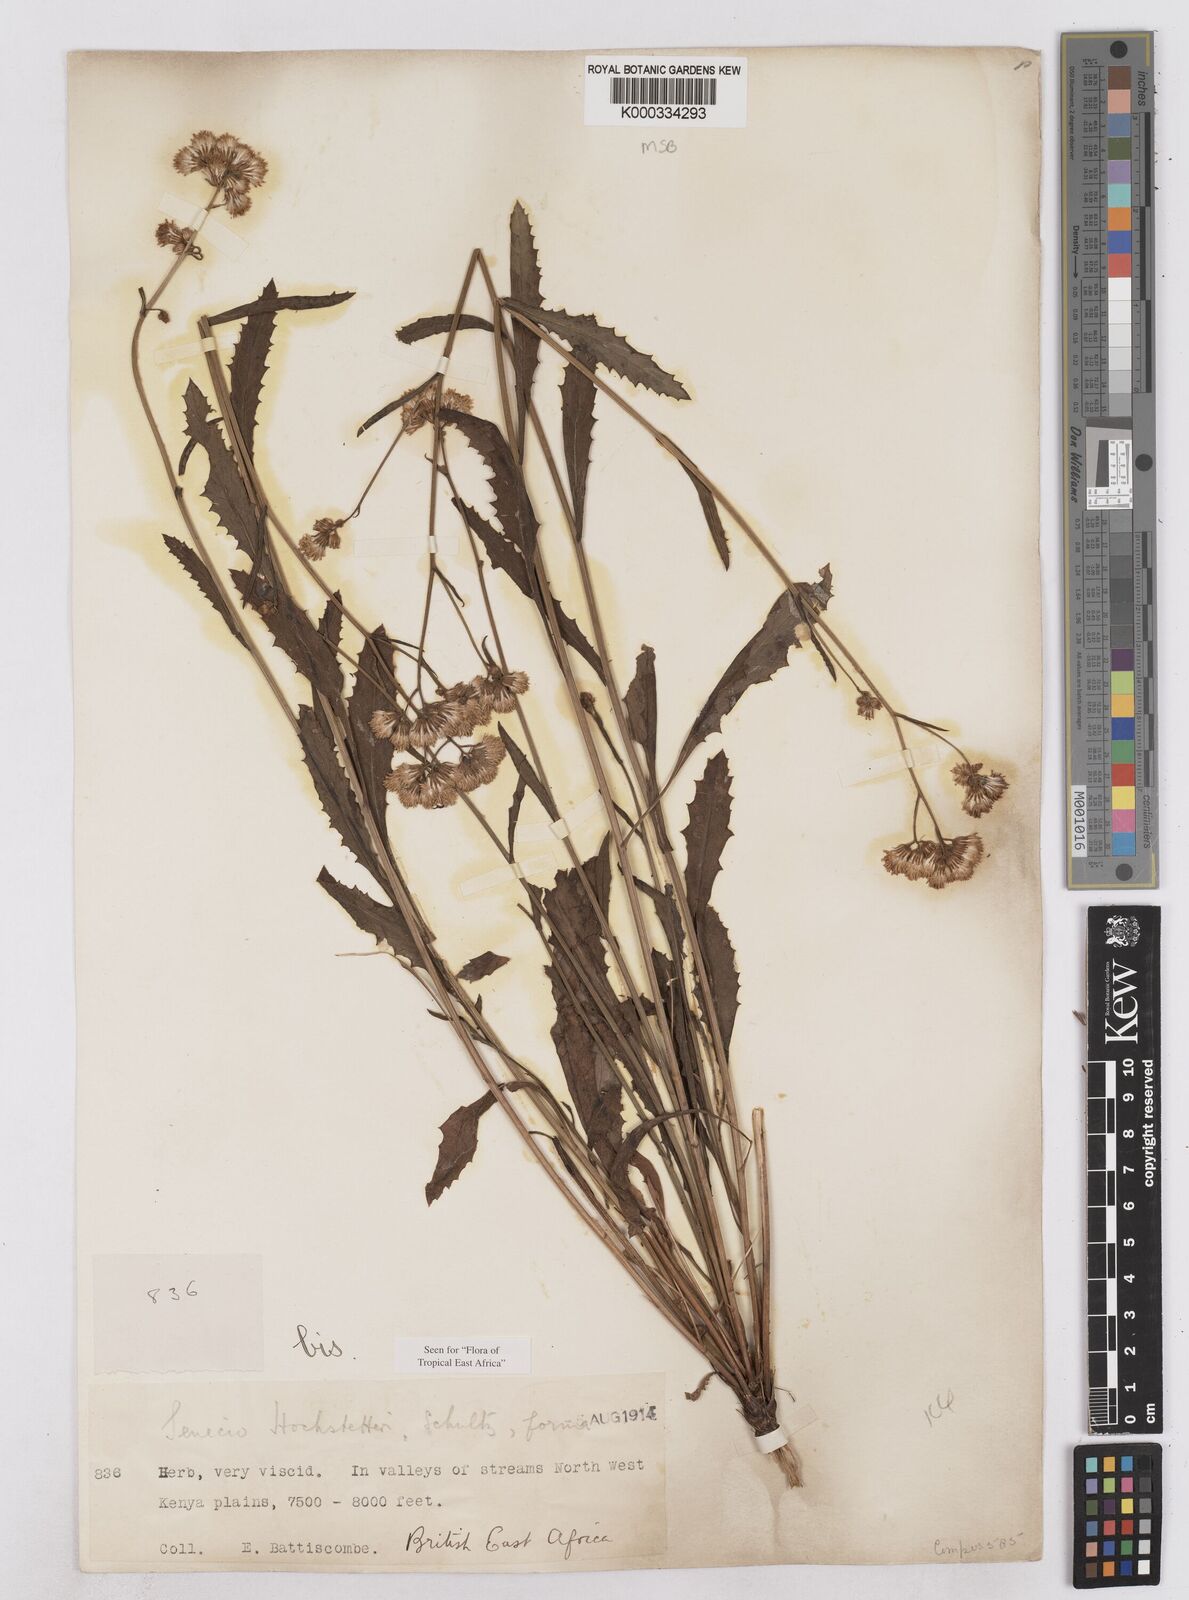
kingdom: Plantae
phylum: Tracheophyta
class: Magnoliopsida
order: Asterales
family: Asteraceae
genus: Senecio
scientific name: Senecio hochstetteri
